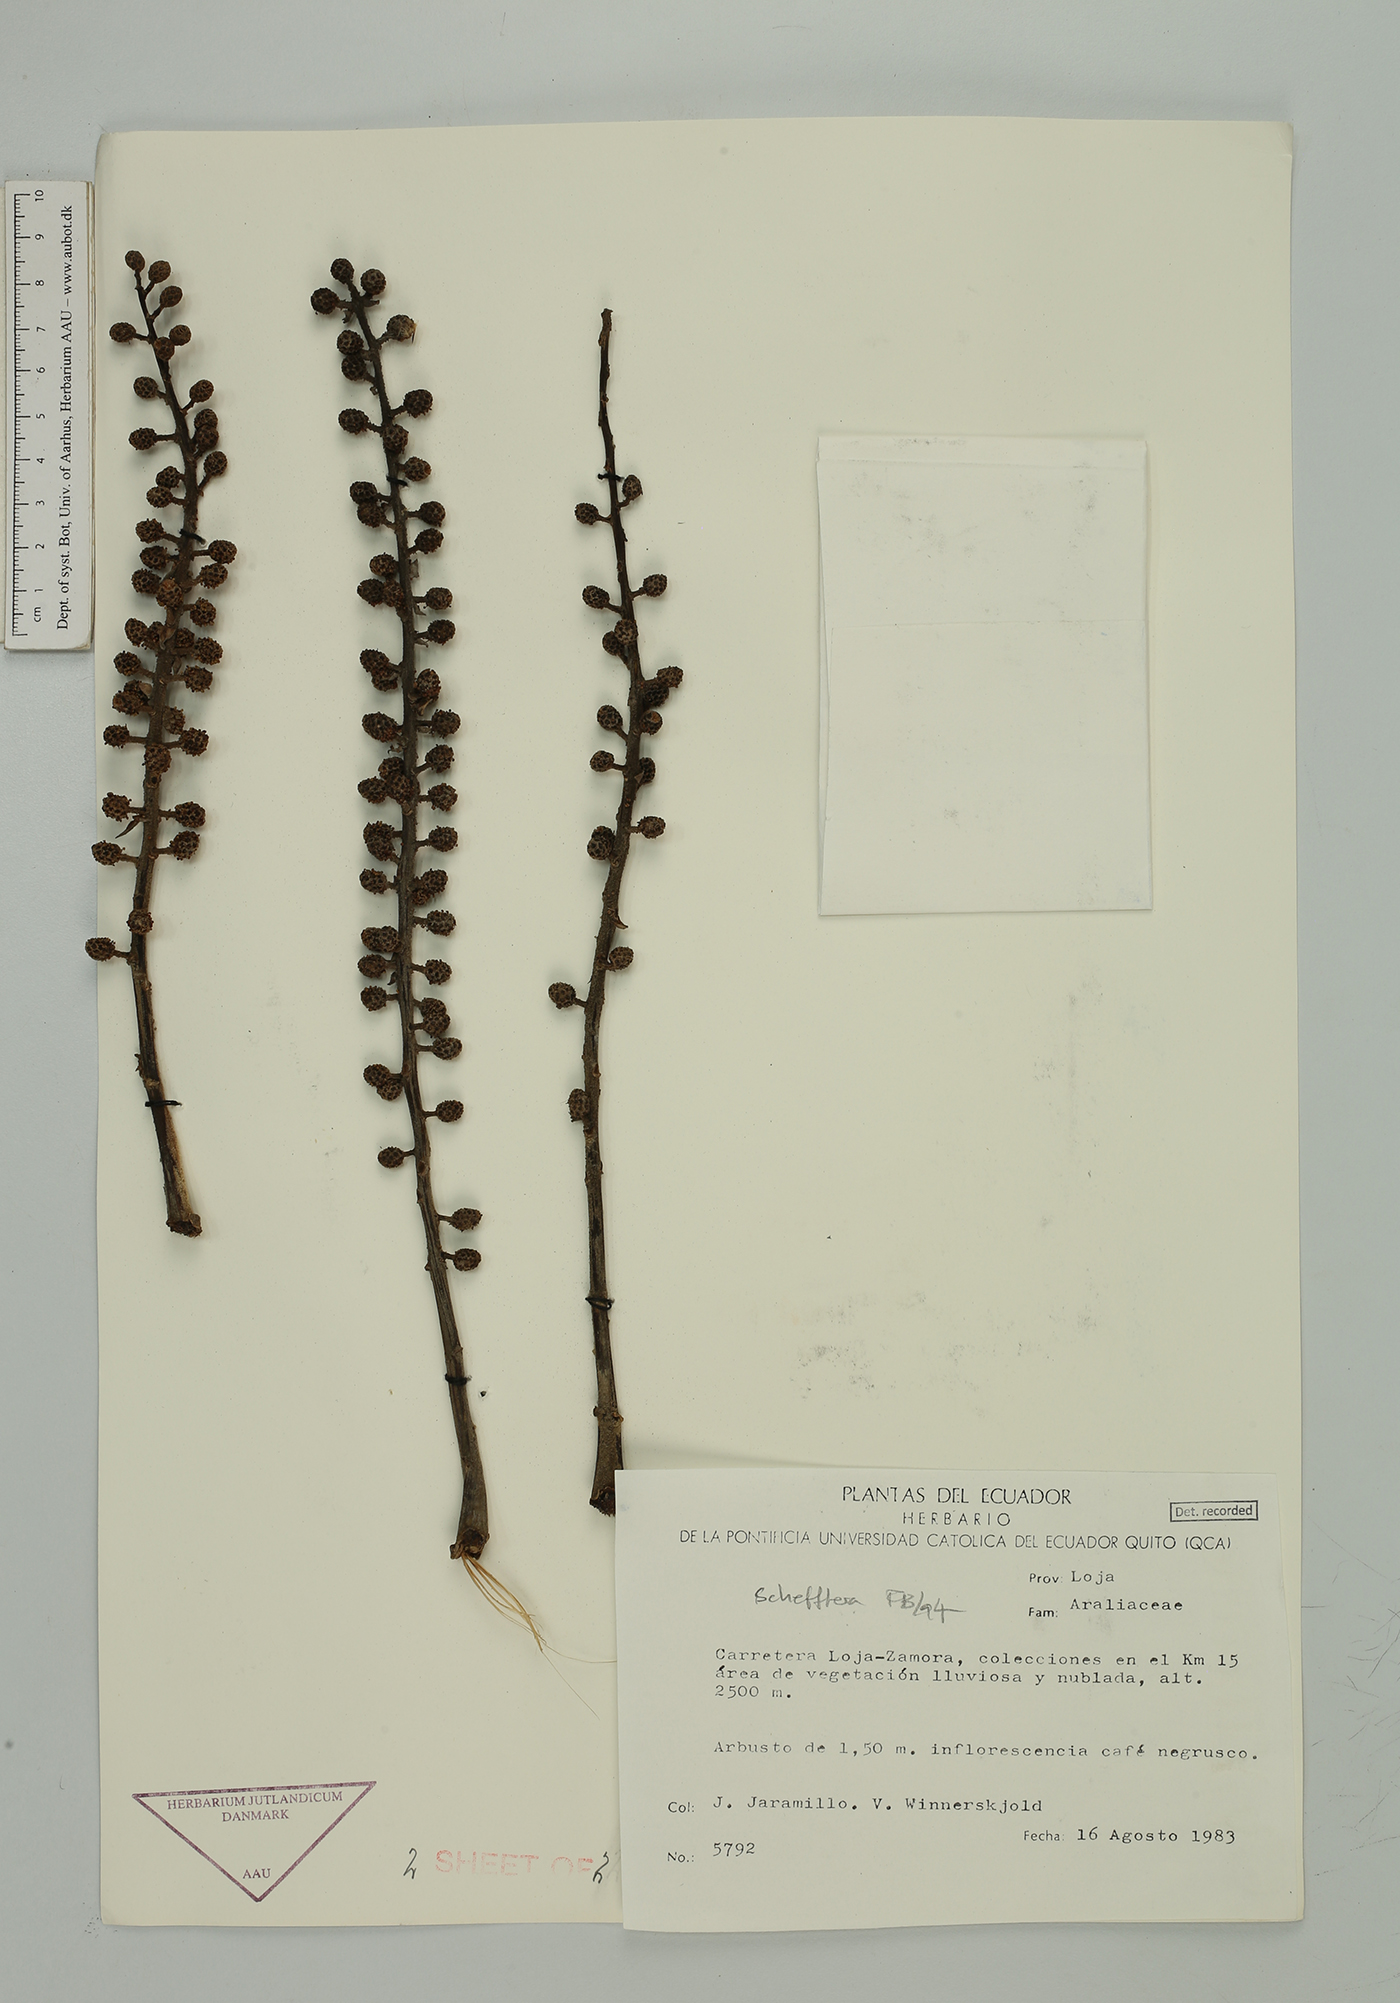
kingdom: Plantae
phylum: Tracheophyta
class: Magnoliopsida
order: Apiales
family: Araliaceae
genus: Sciodaphyllum
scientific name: Sciodaphyllum
